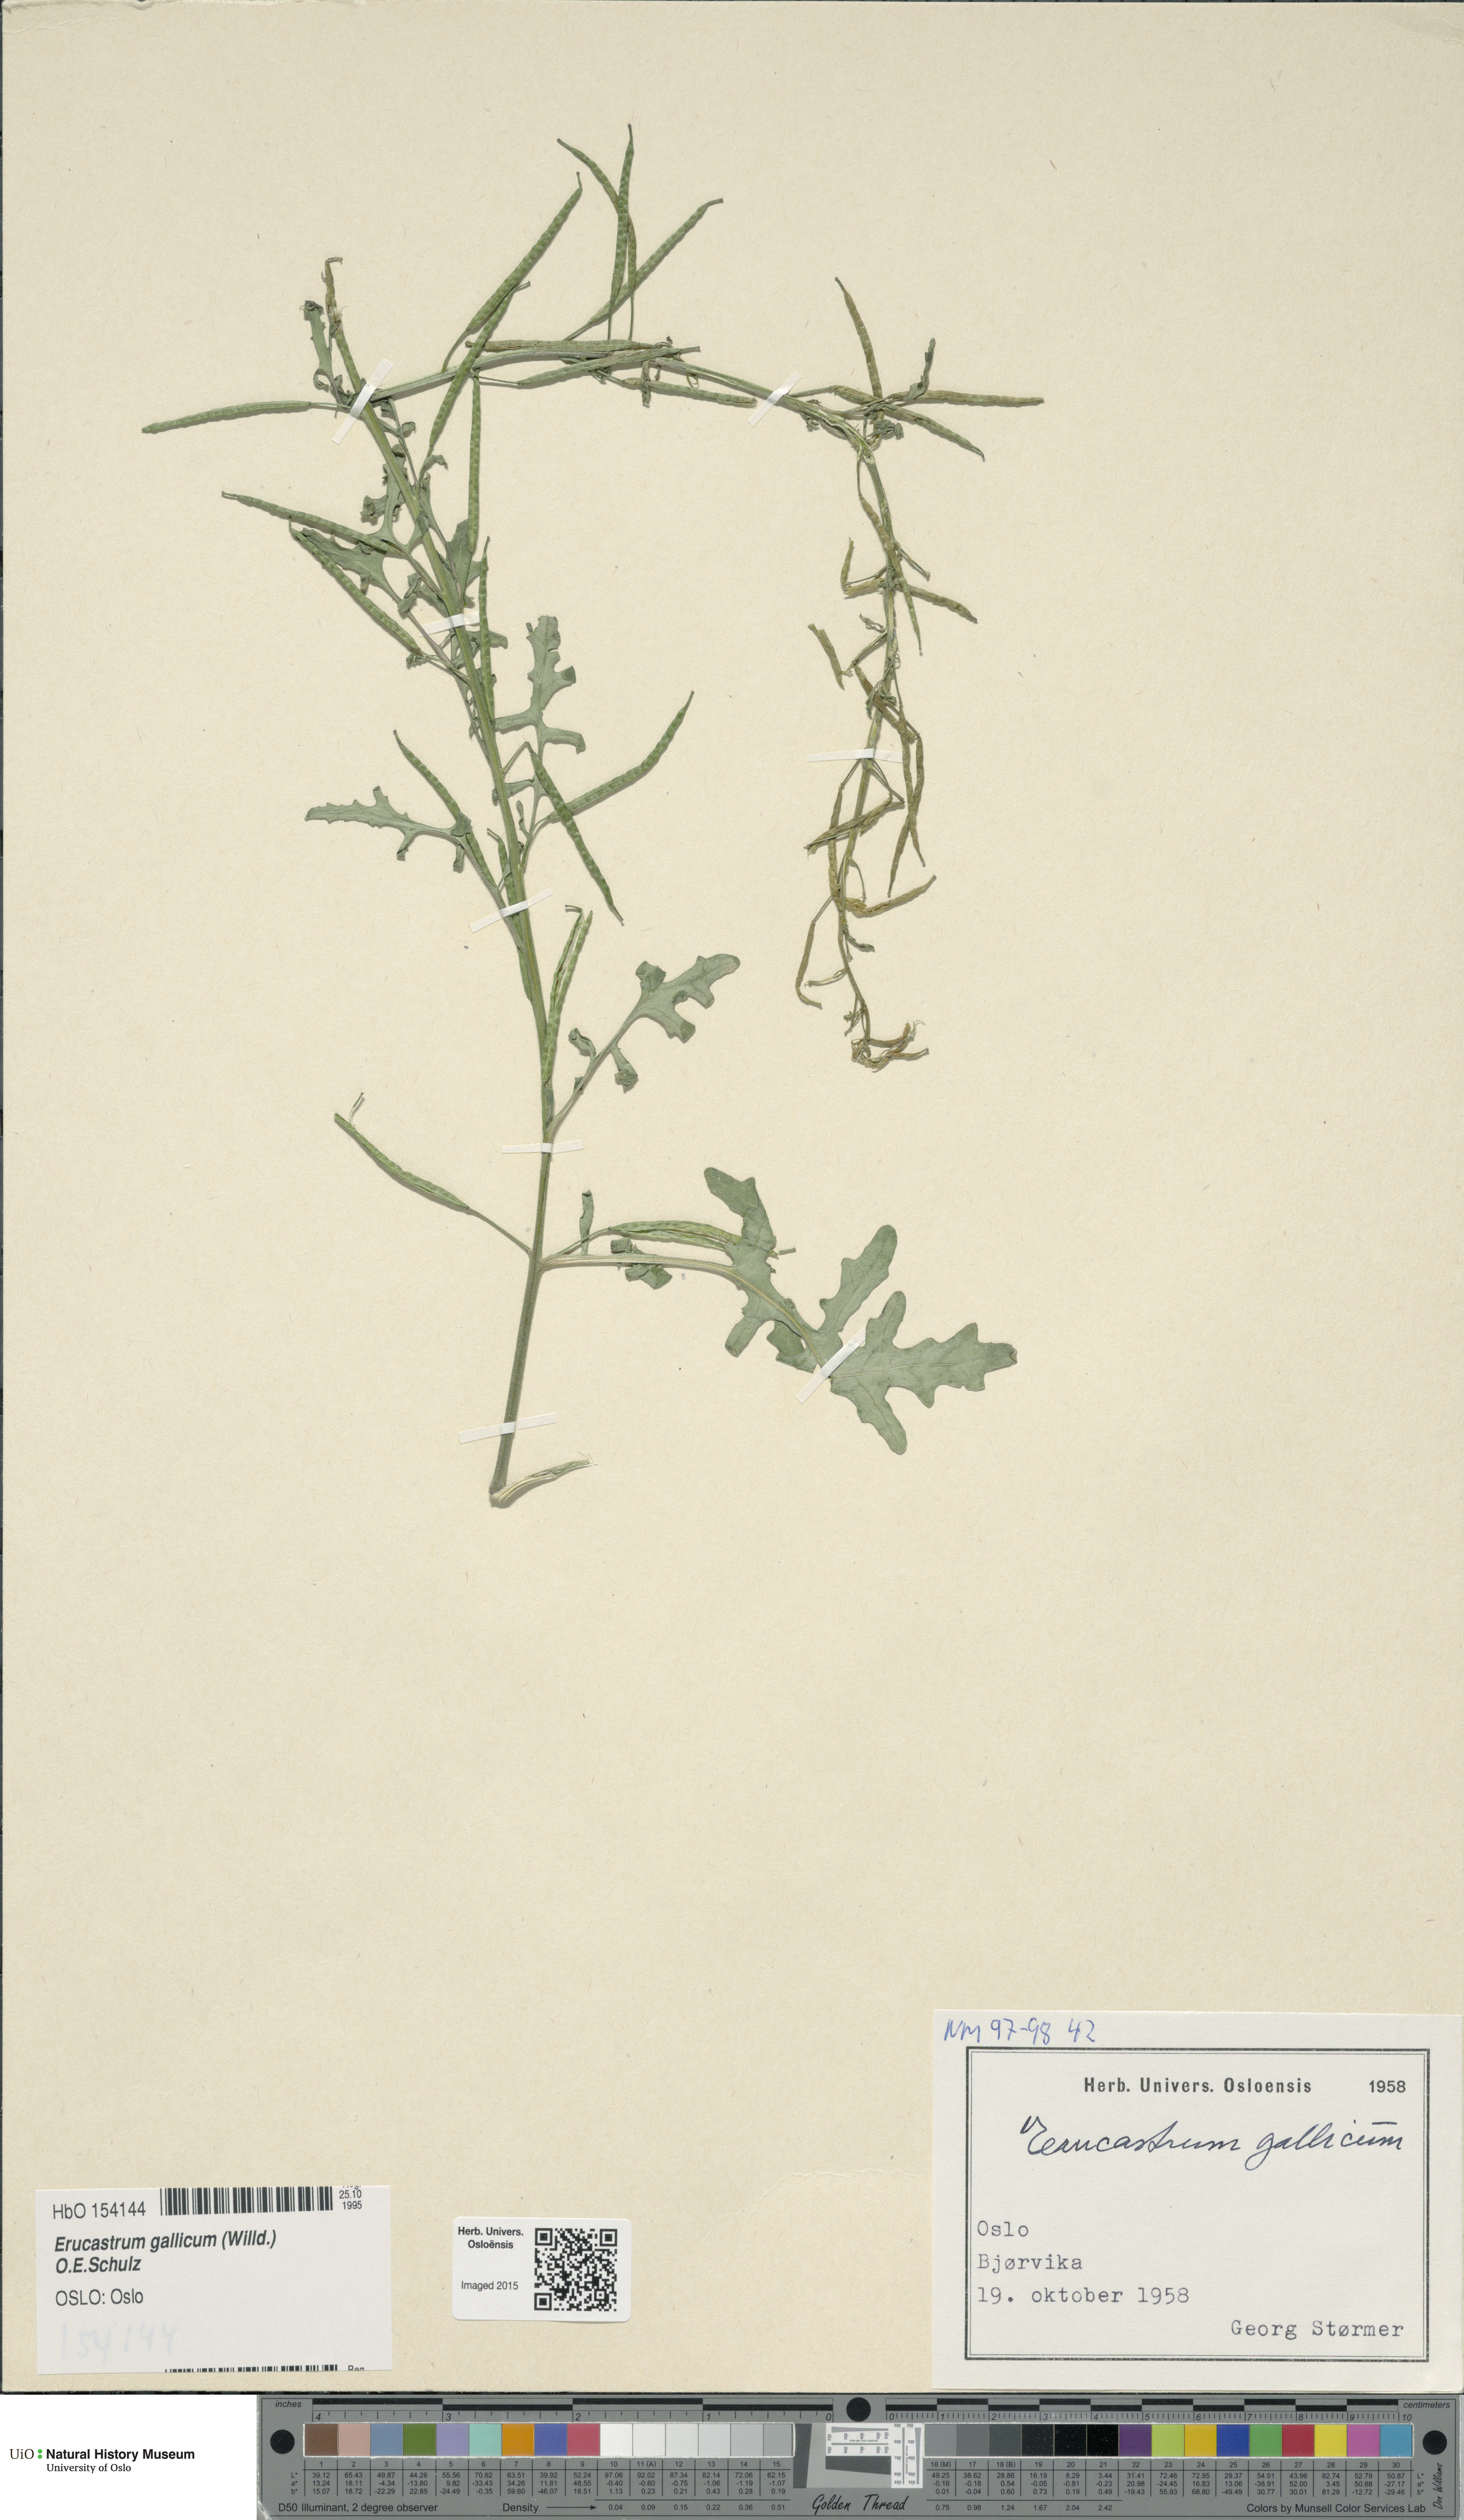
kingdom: Plantae
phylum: Tracheophyta
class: Magnoliopsida
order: Brassicales
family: Brassicaceae
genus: Erucastrum
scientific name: Erucastrum gallicum
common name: Hairy rocket
